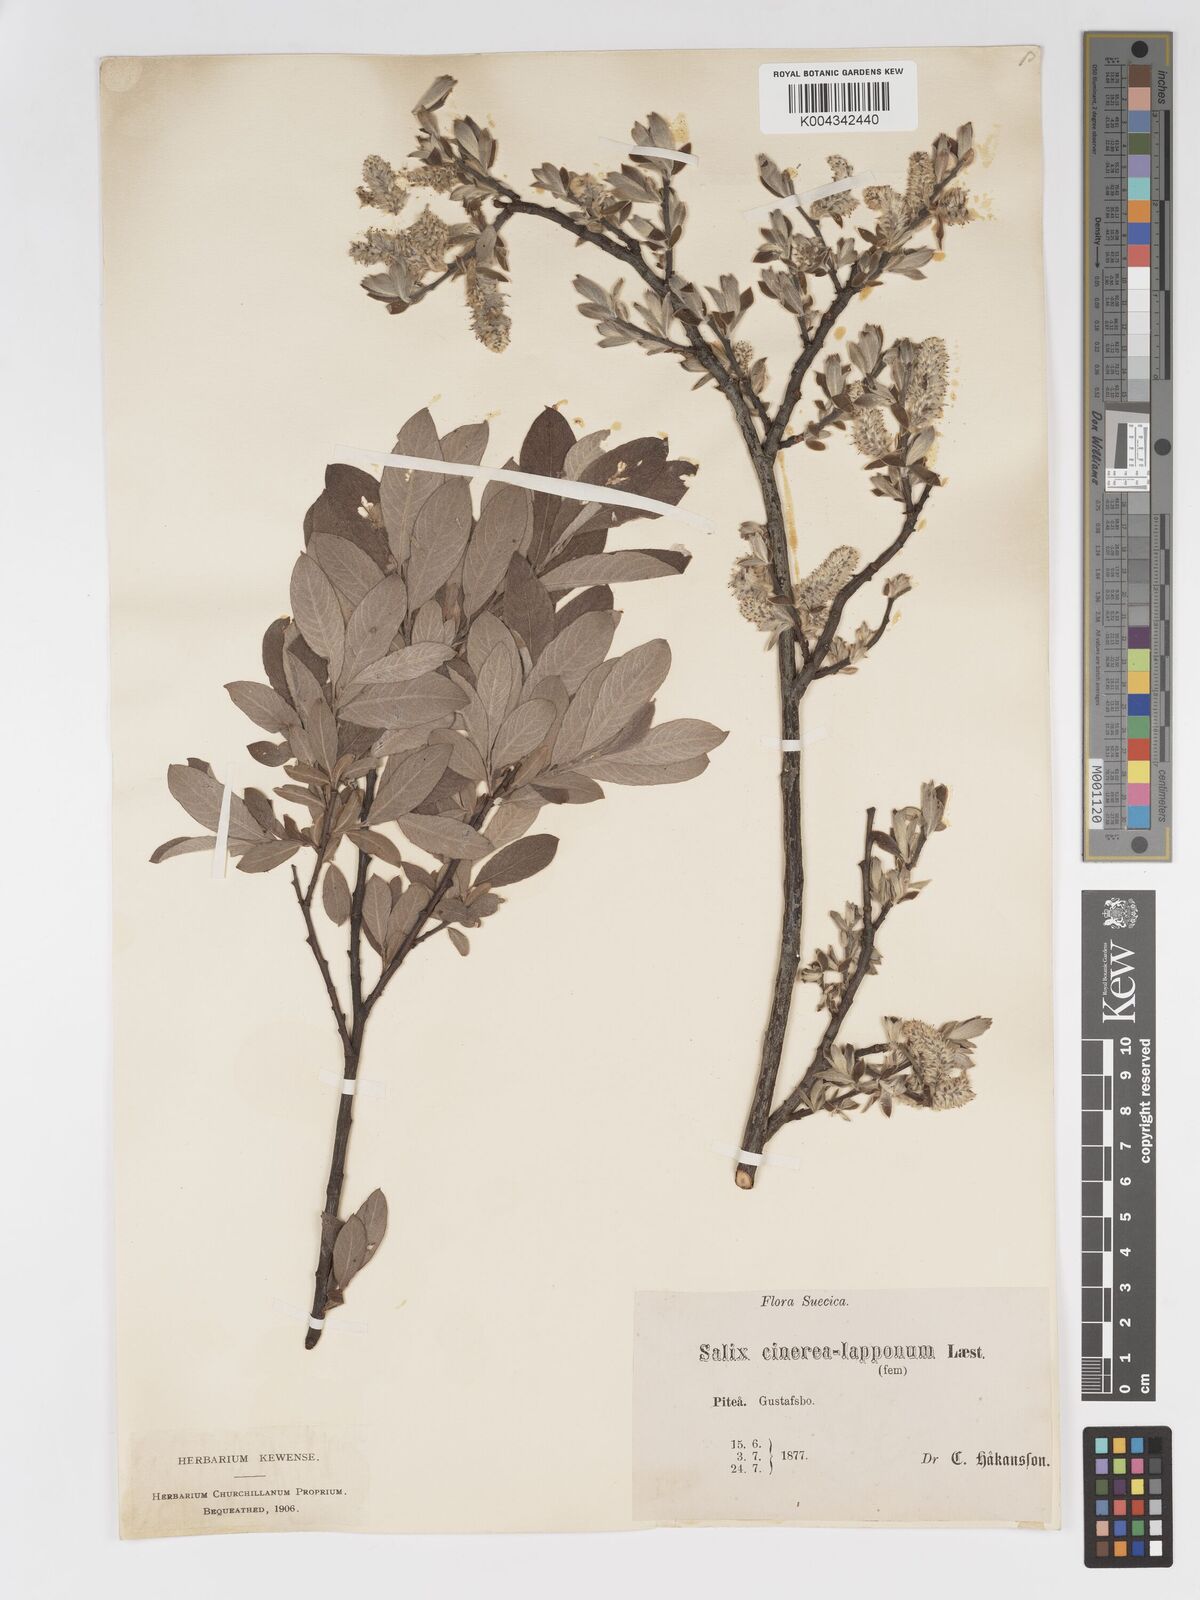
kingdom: Plantae
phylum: Tracheophyta
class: Magnoliopsida
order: Malpighiales
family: Salicaceae
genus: Salix
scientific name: Salix
